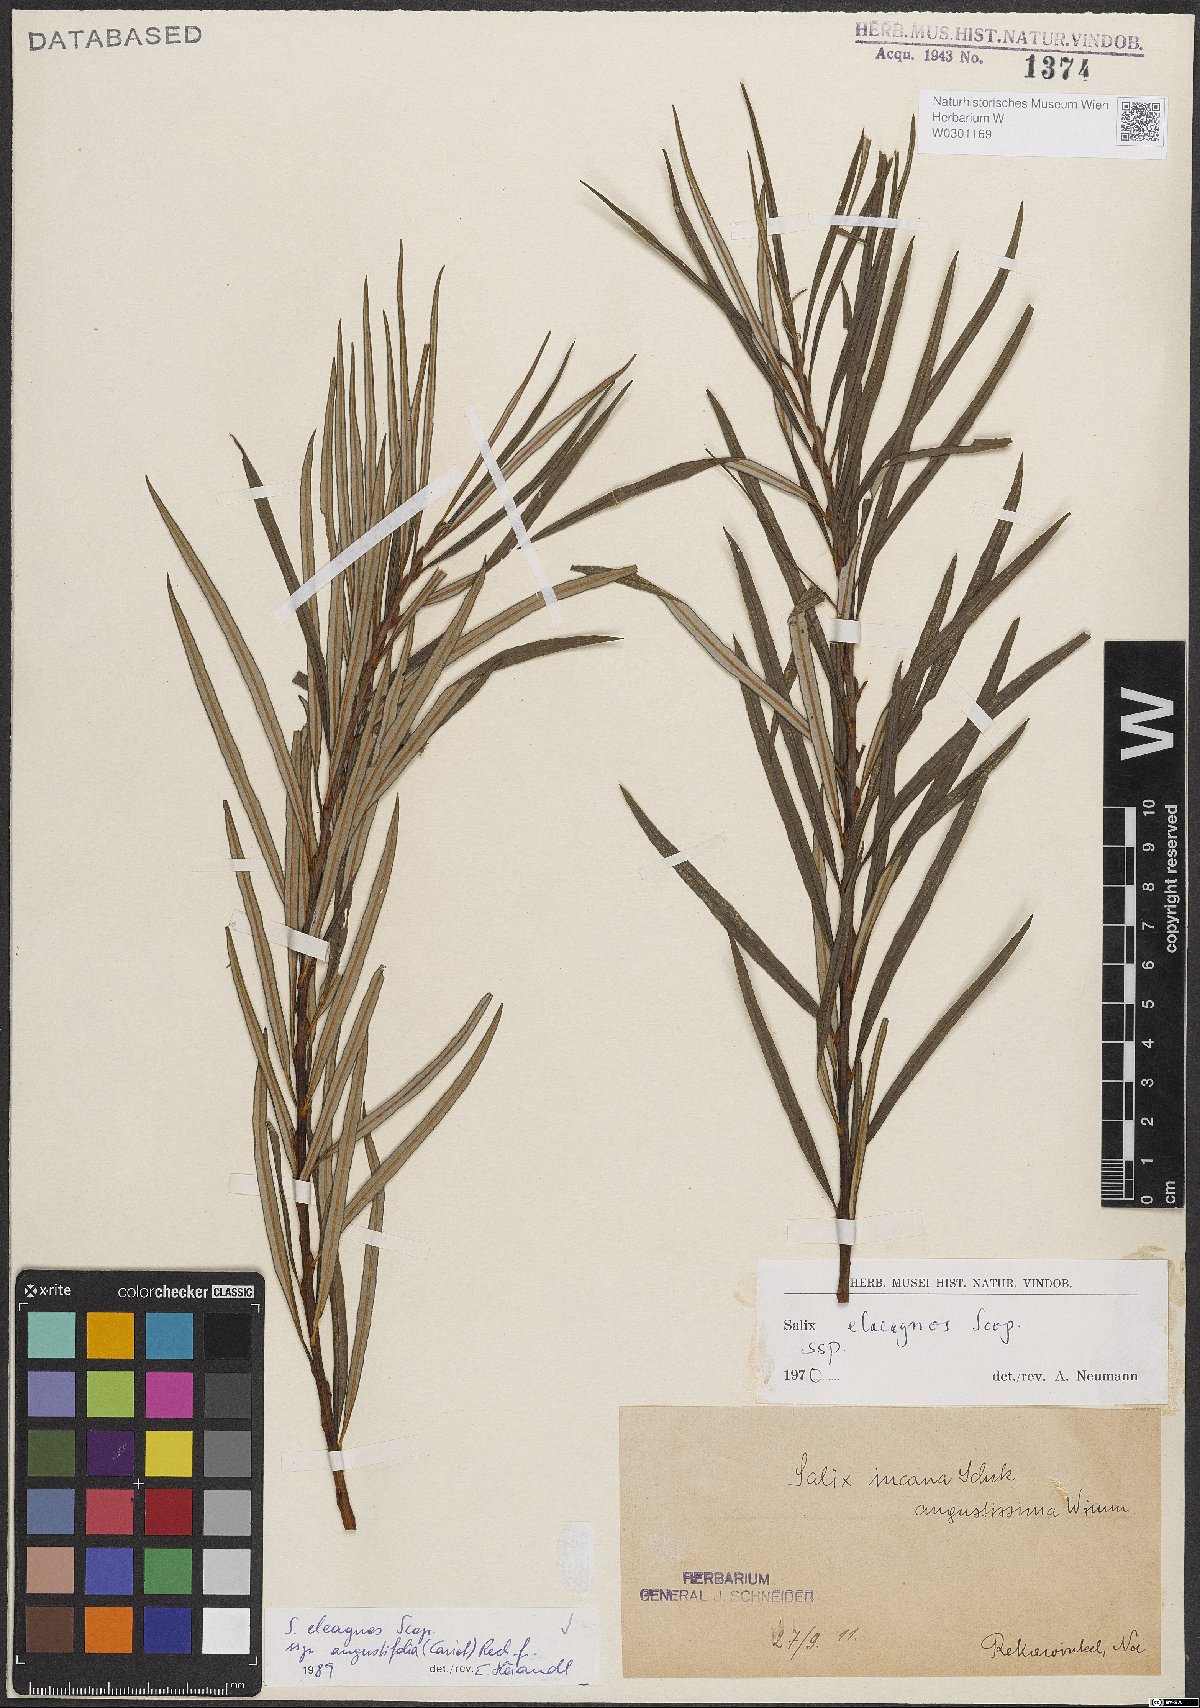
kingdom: Plantae
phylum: Tracheophyta
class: Magnoliopsida
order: Malpighiales
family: Salicaceae
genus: Salix
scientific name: Salix eleagnos
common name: Elaeagnus willow
